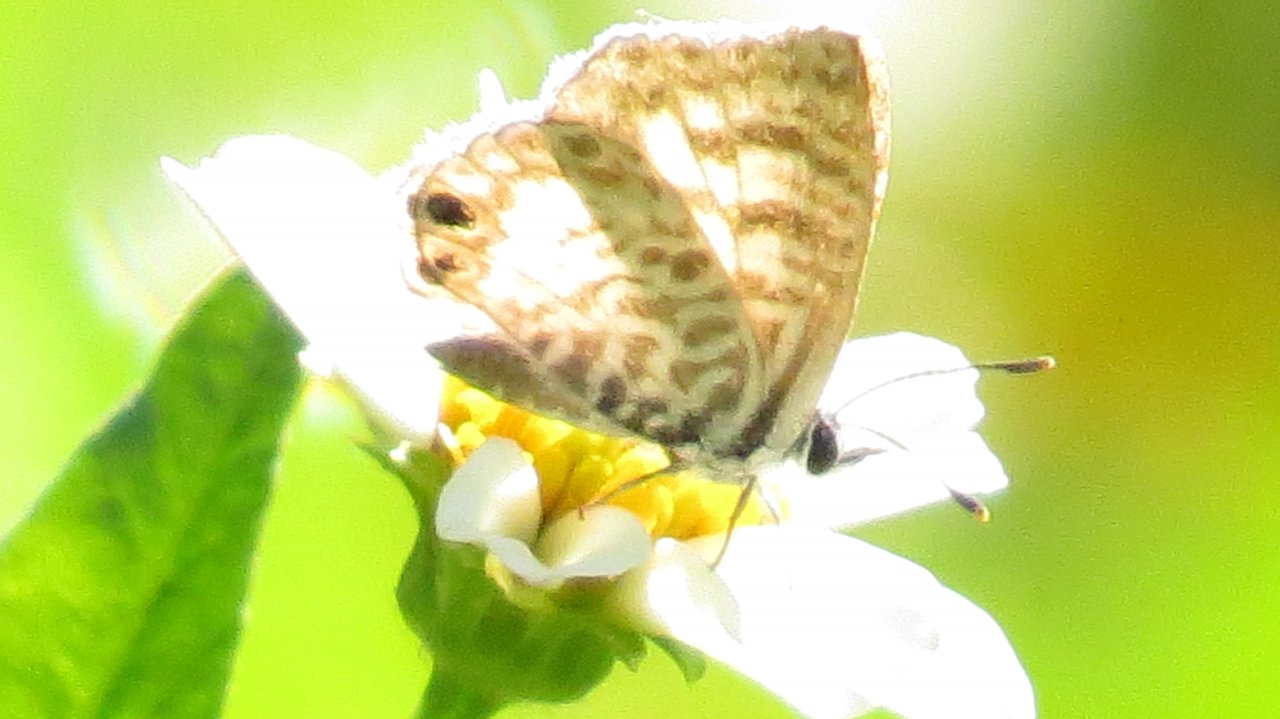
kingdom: Animalia
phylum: Arthropoda
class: Insecta
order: Lepidoptera
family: Lycaenidae
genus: Leptotes
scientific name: Leptotes cassius
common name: Cassius Blue
